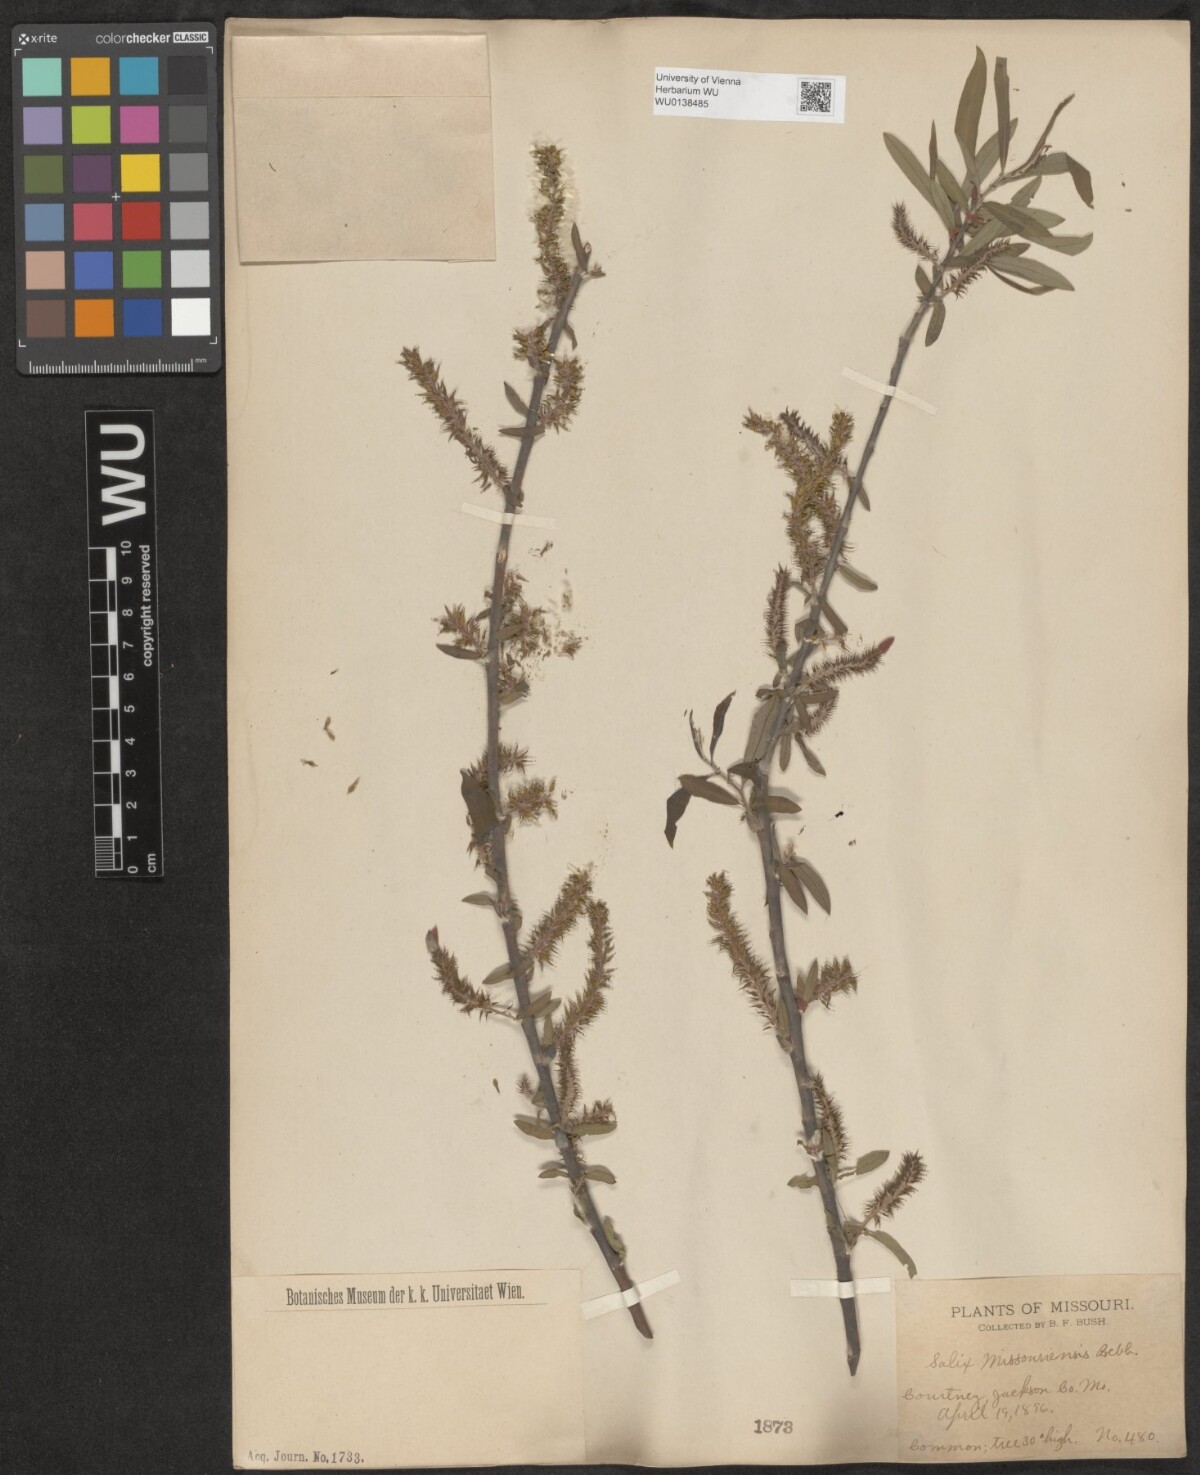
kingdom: Plantae
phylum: Tracheophyta
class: Magnoliopsida
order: Malpighiales
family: Salicaceae
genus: Salix
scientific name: Salix eriocephala
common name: Heart-leaved willow
